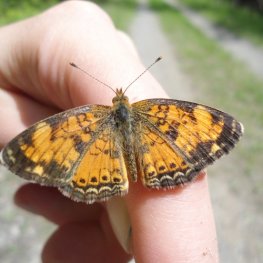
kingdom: Animalia
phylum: Arthropoda
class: Insecta
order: Lepidoptera
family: Nymphalidae
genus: Phyciodes
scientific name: Phyciodes tharos
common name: Northern Crescent
